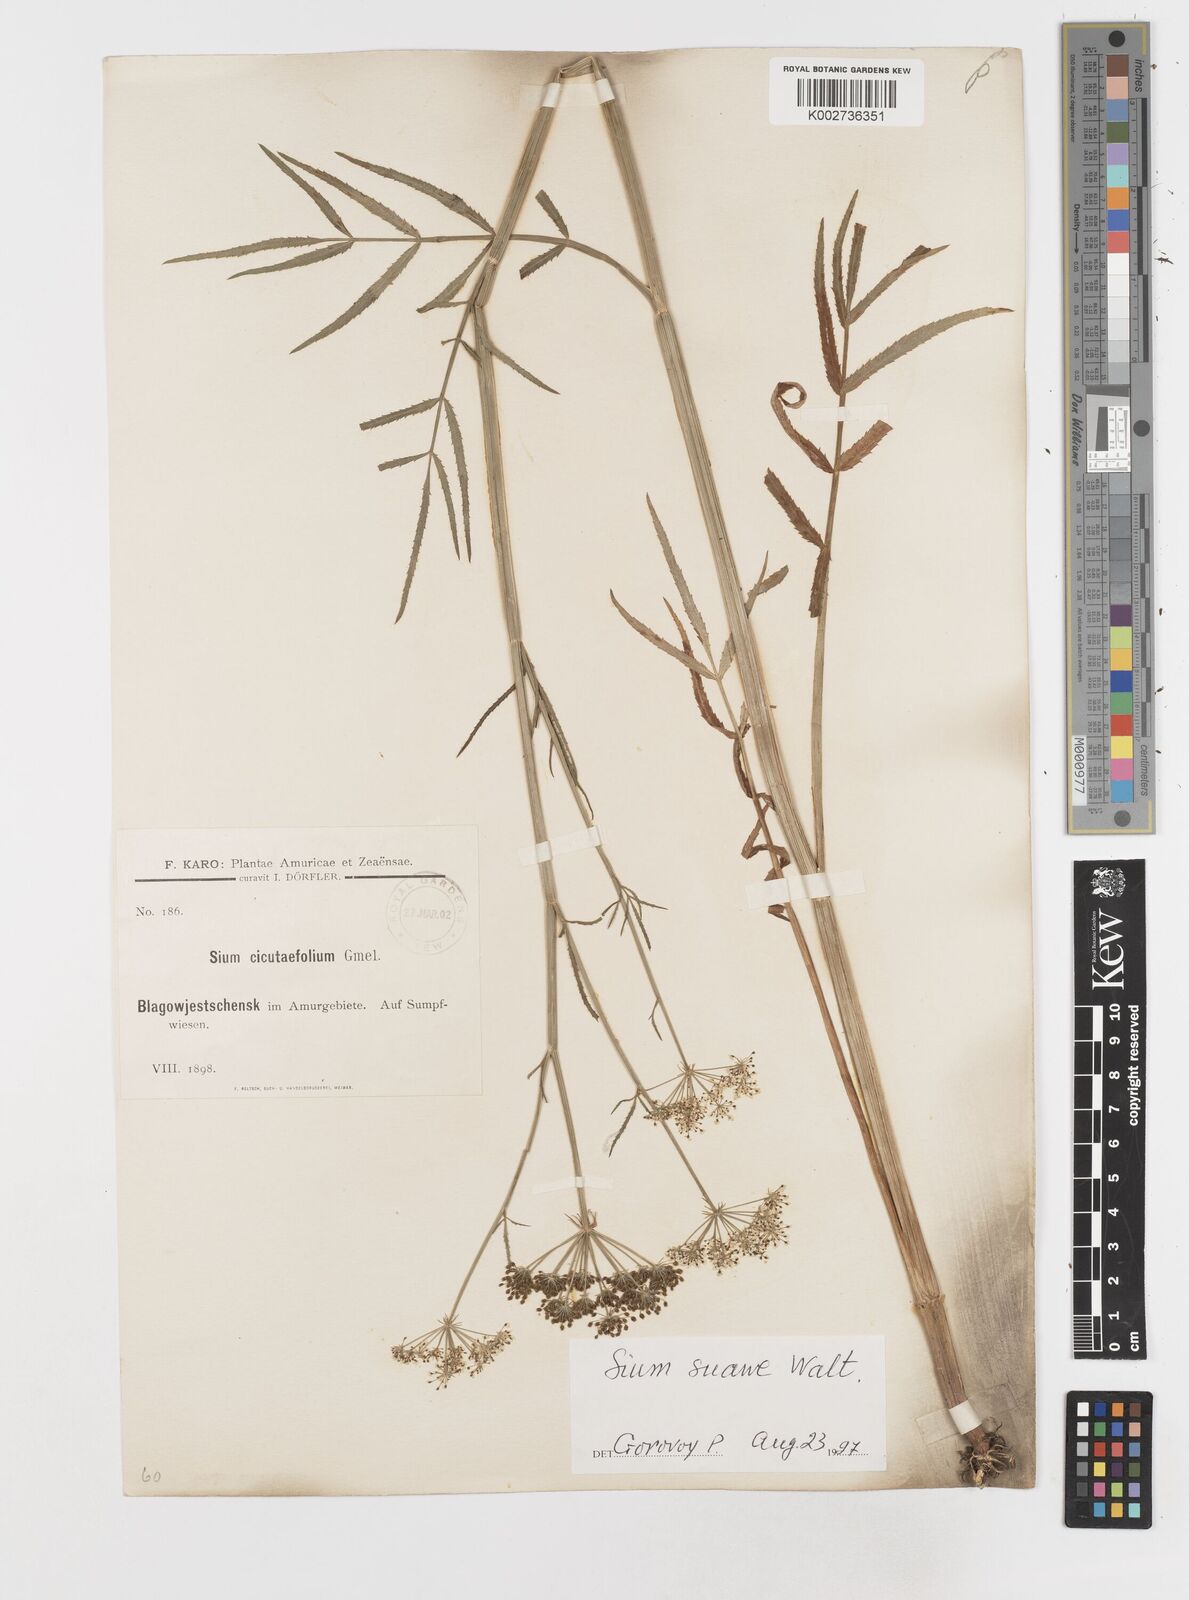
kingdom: Plantae
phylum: Tracheophyta
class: Magnoliopsida
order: Apiales
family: Apiaceae
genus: Sium
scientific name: Sium suave
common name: Hemlock water-parsnip
